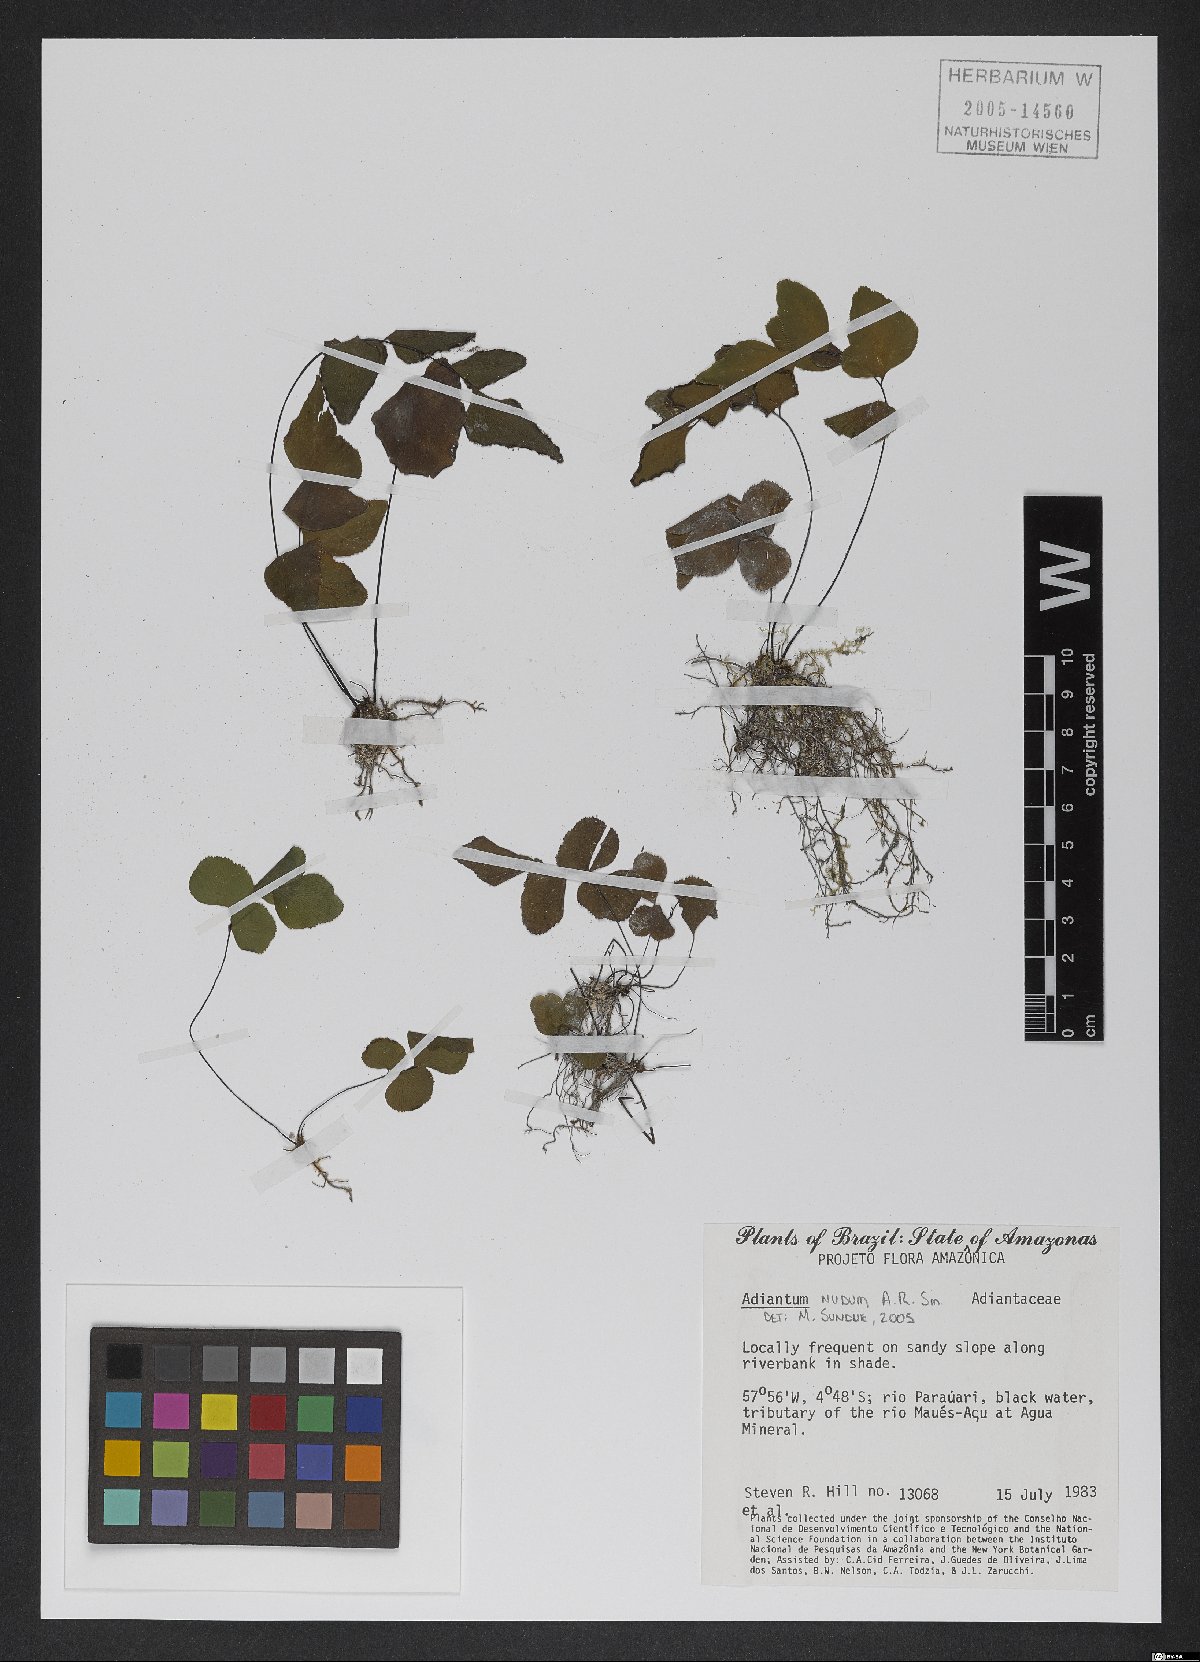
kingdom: Plantae
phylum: Tracheophyta
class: Polypodiopsida
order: Polypodiales
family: Pteridaceae
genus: Adiantum
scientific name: Adiantum nudum
